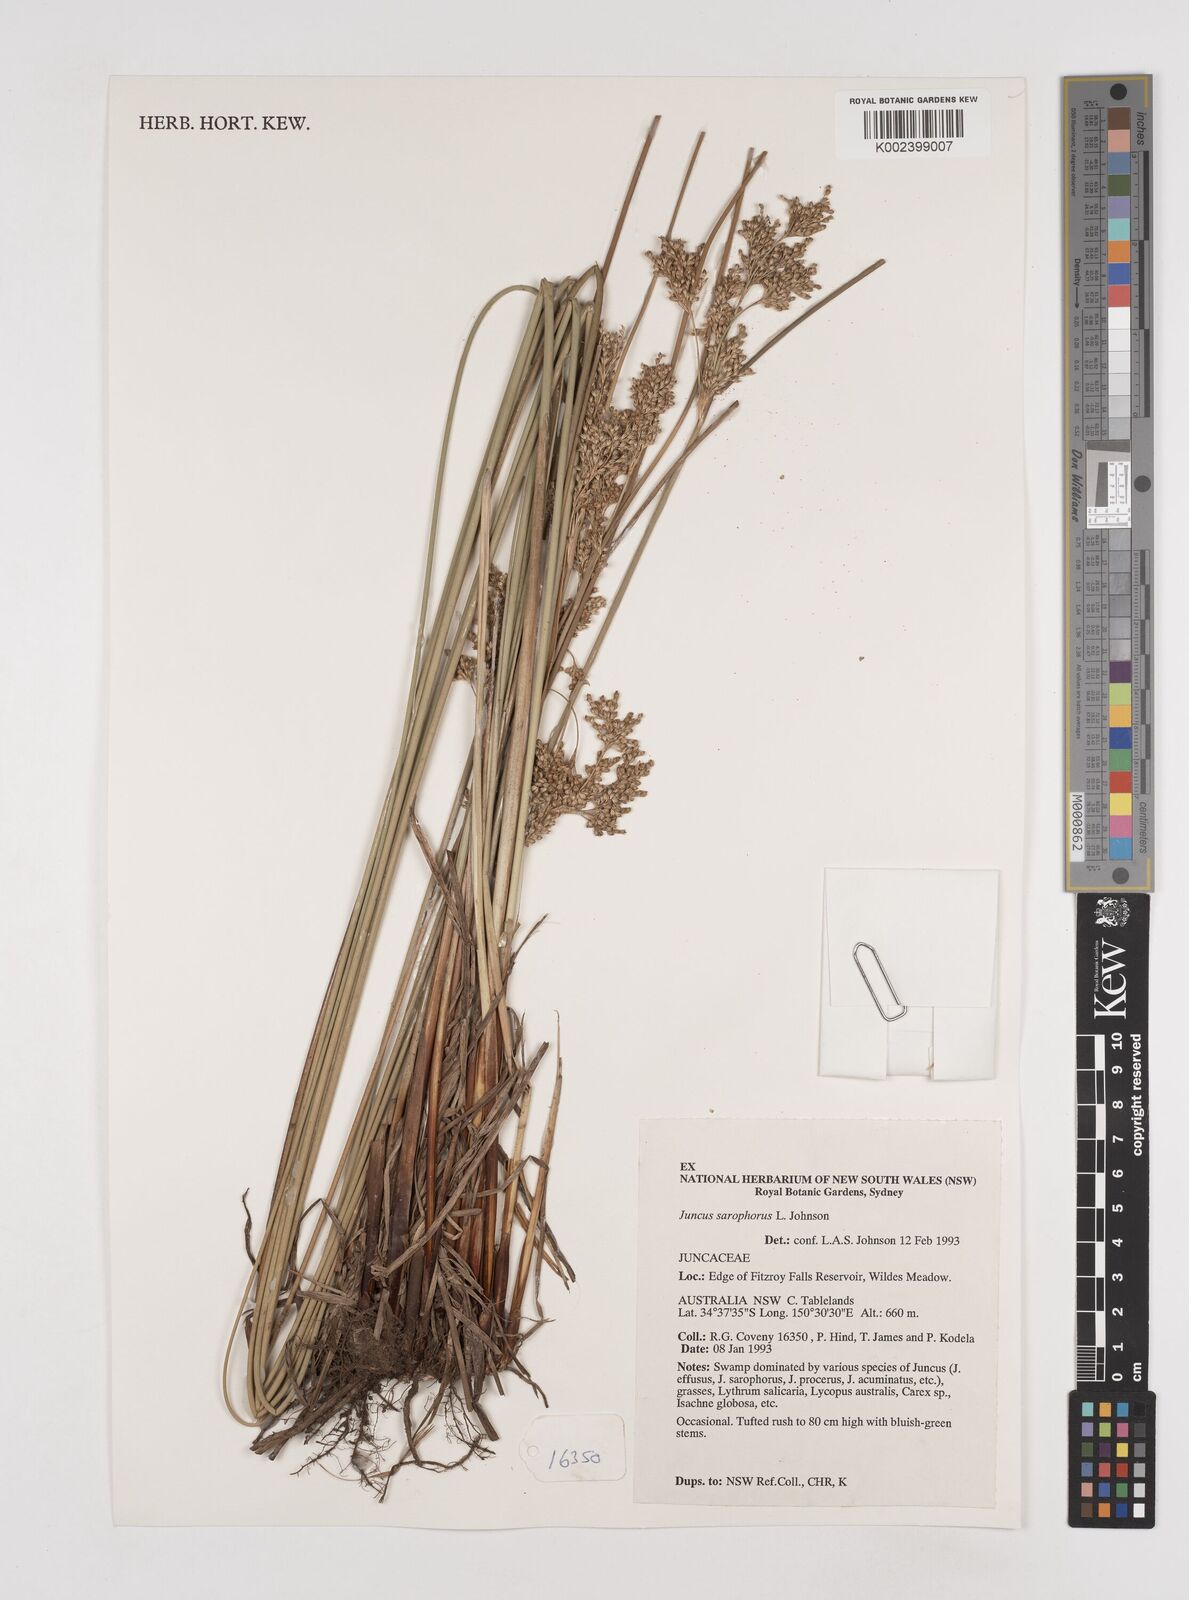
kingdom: Plantae
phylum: Tracheophyta
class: Liliopsida
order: Poales
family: Juncaceae
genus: Juncus
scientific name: Juncus sarophorus
